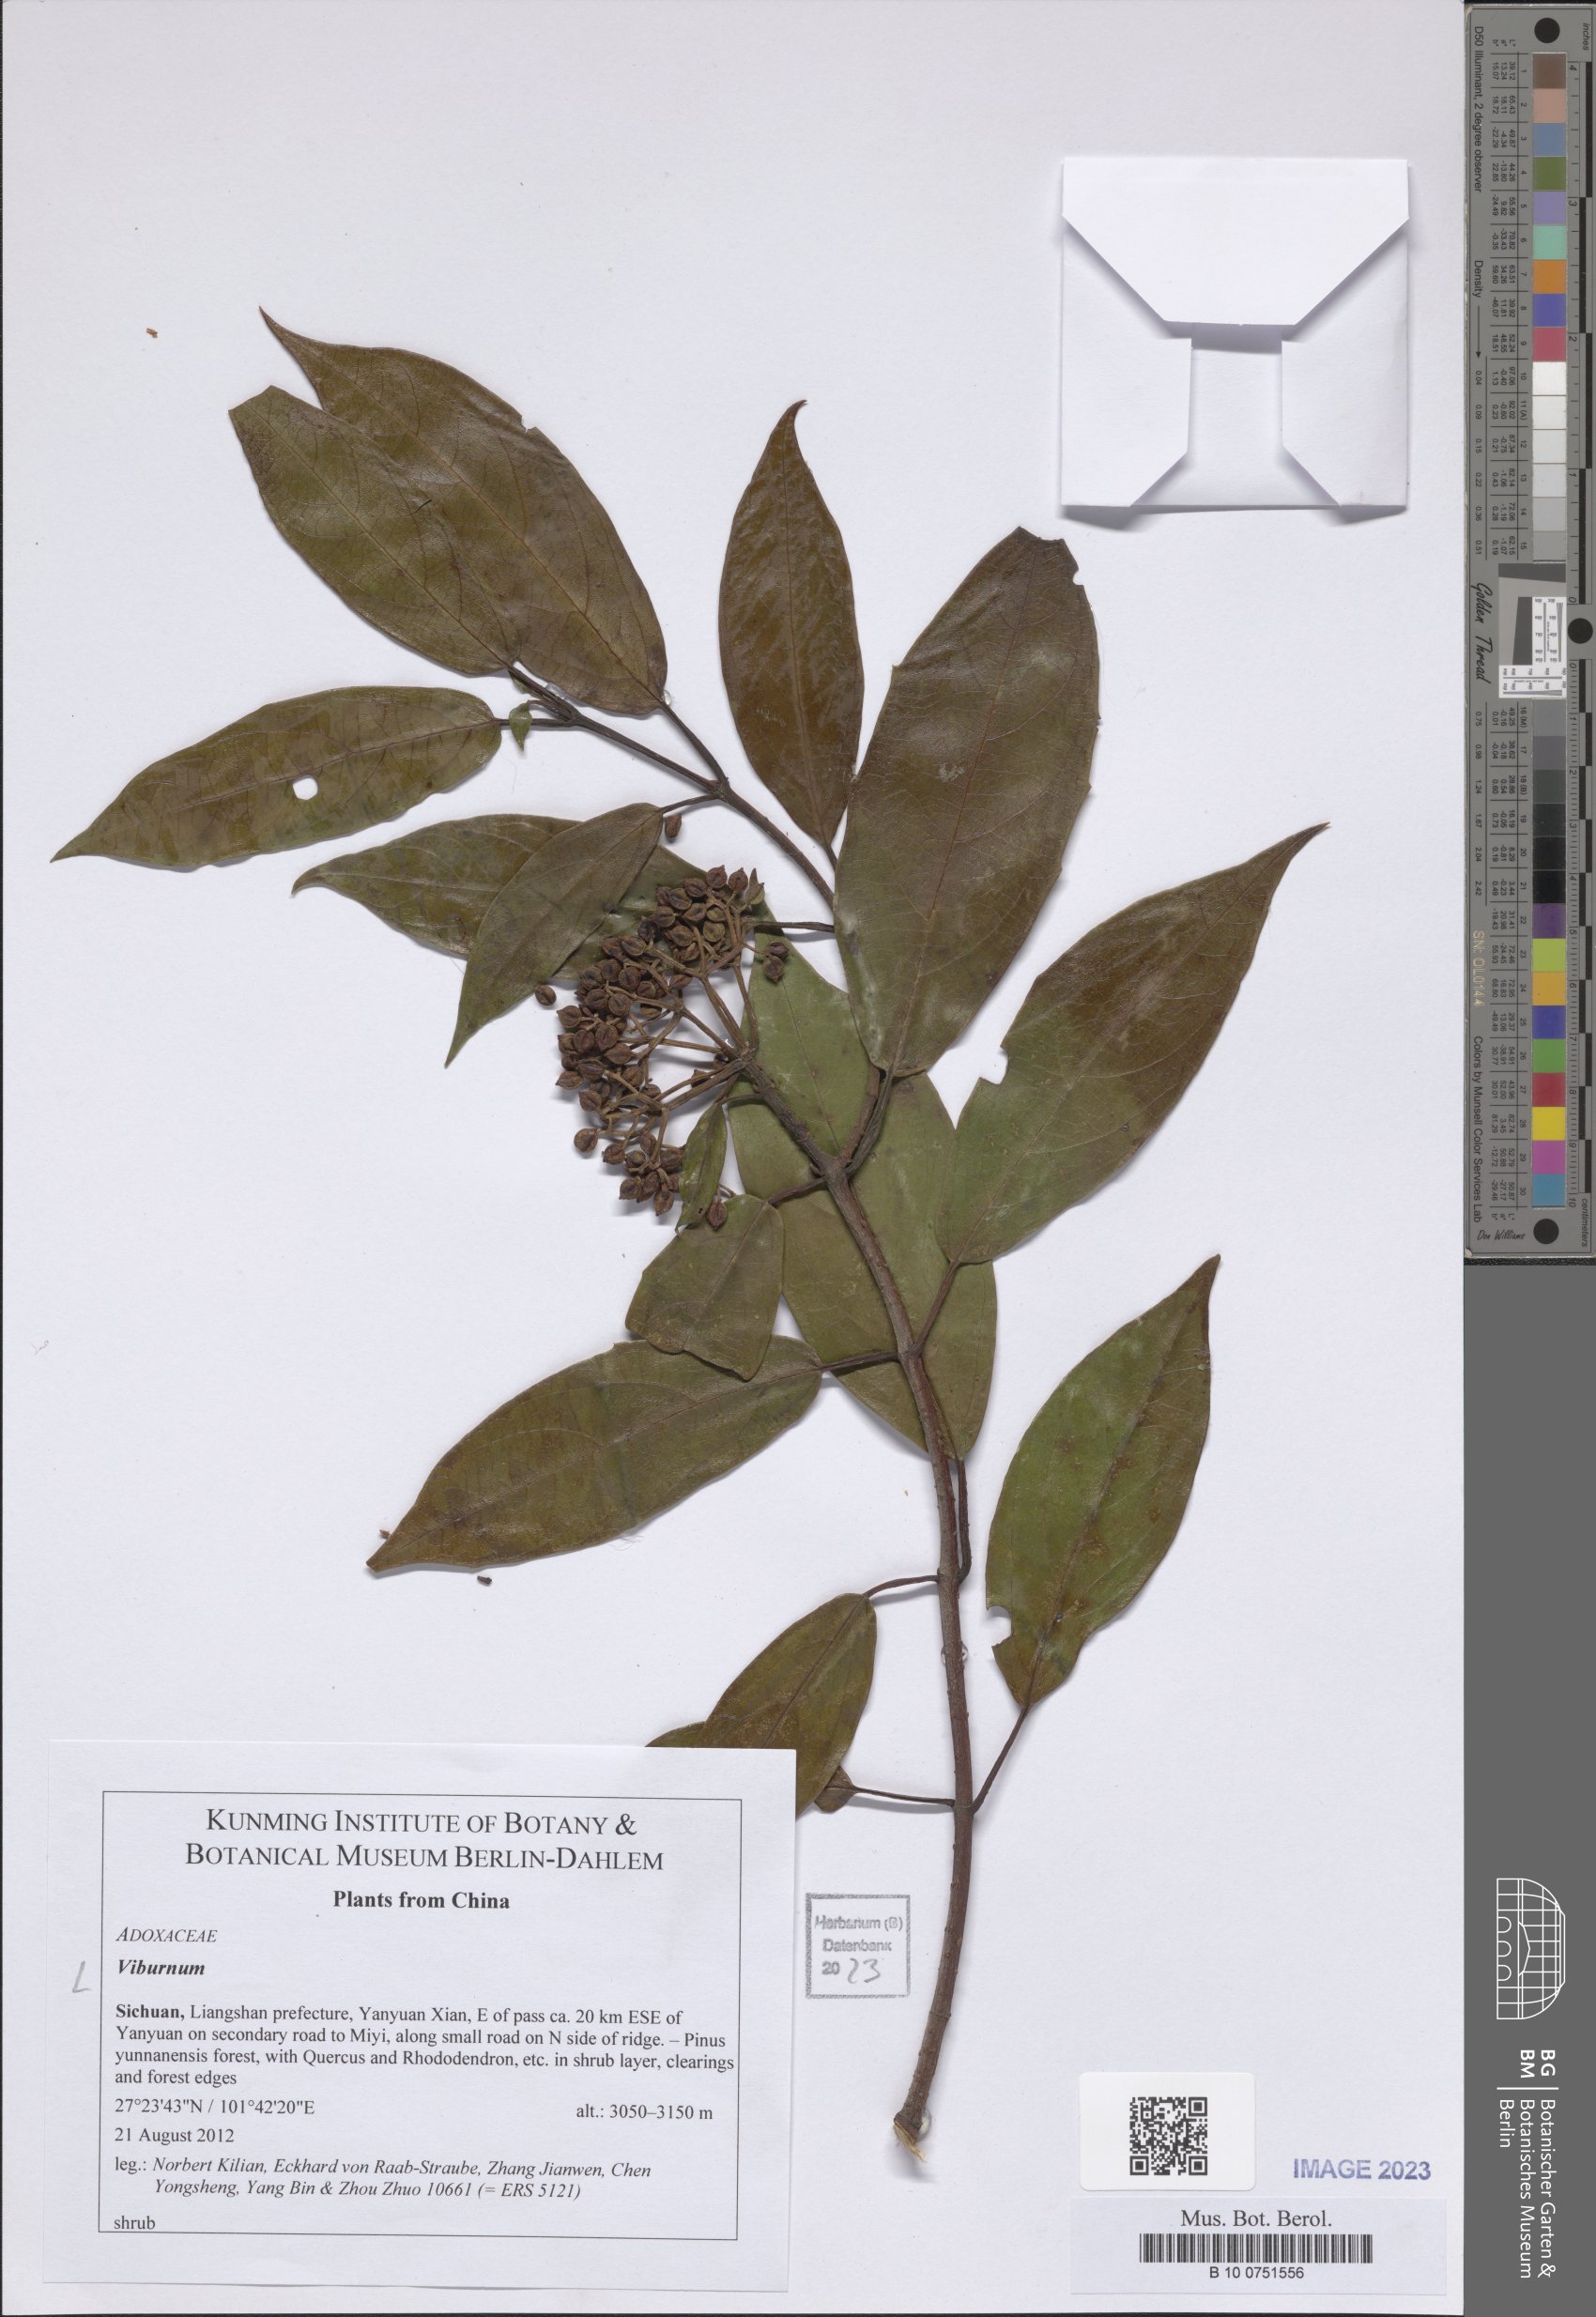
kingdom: Plantae
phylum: Tracheophyta
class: Magnoliopsida
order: Dipsacales
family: Viburnaceae
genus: Viburnum
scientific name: Viburnum
